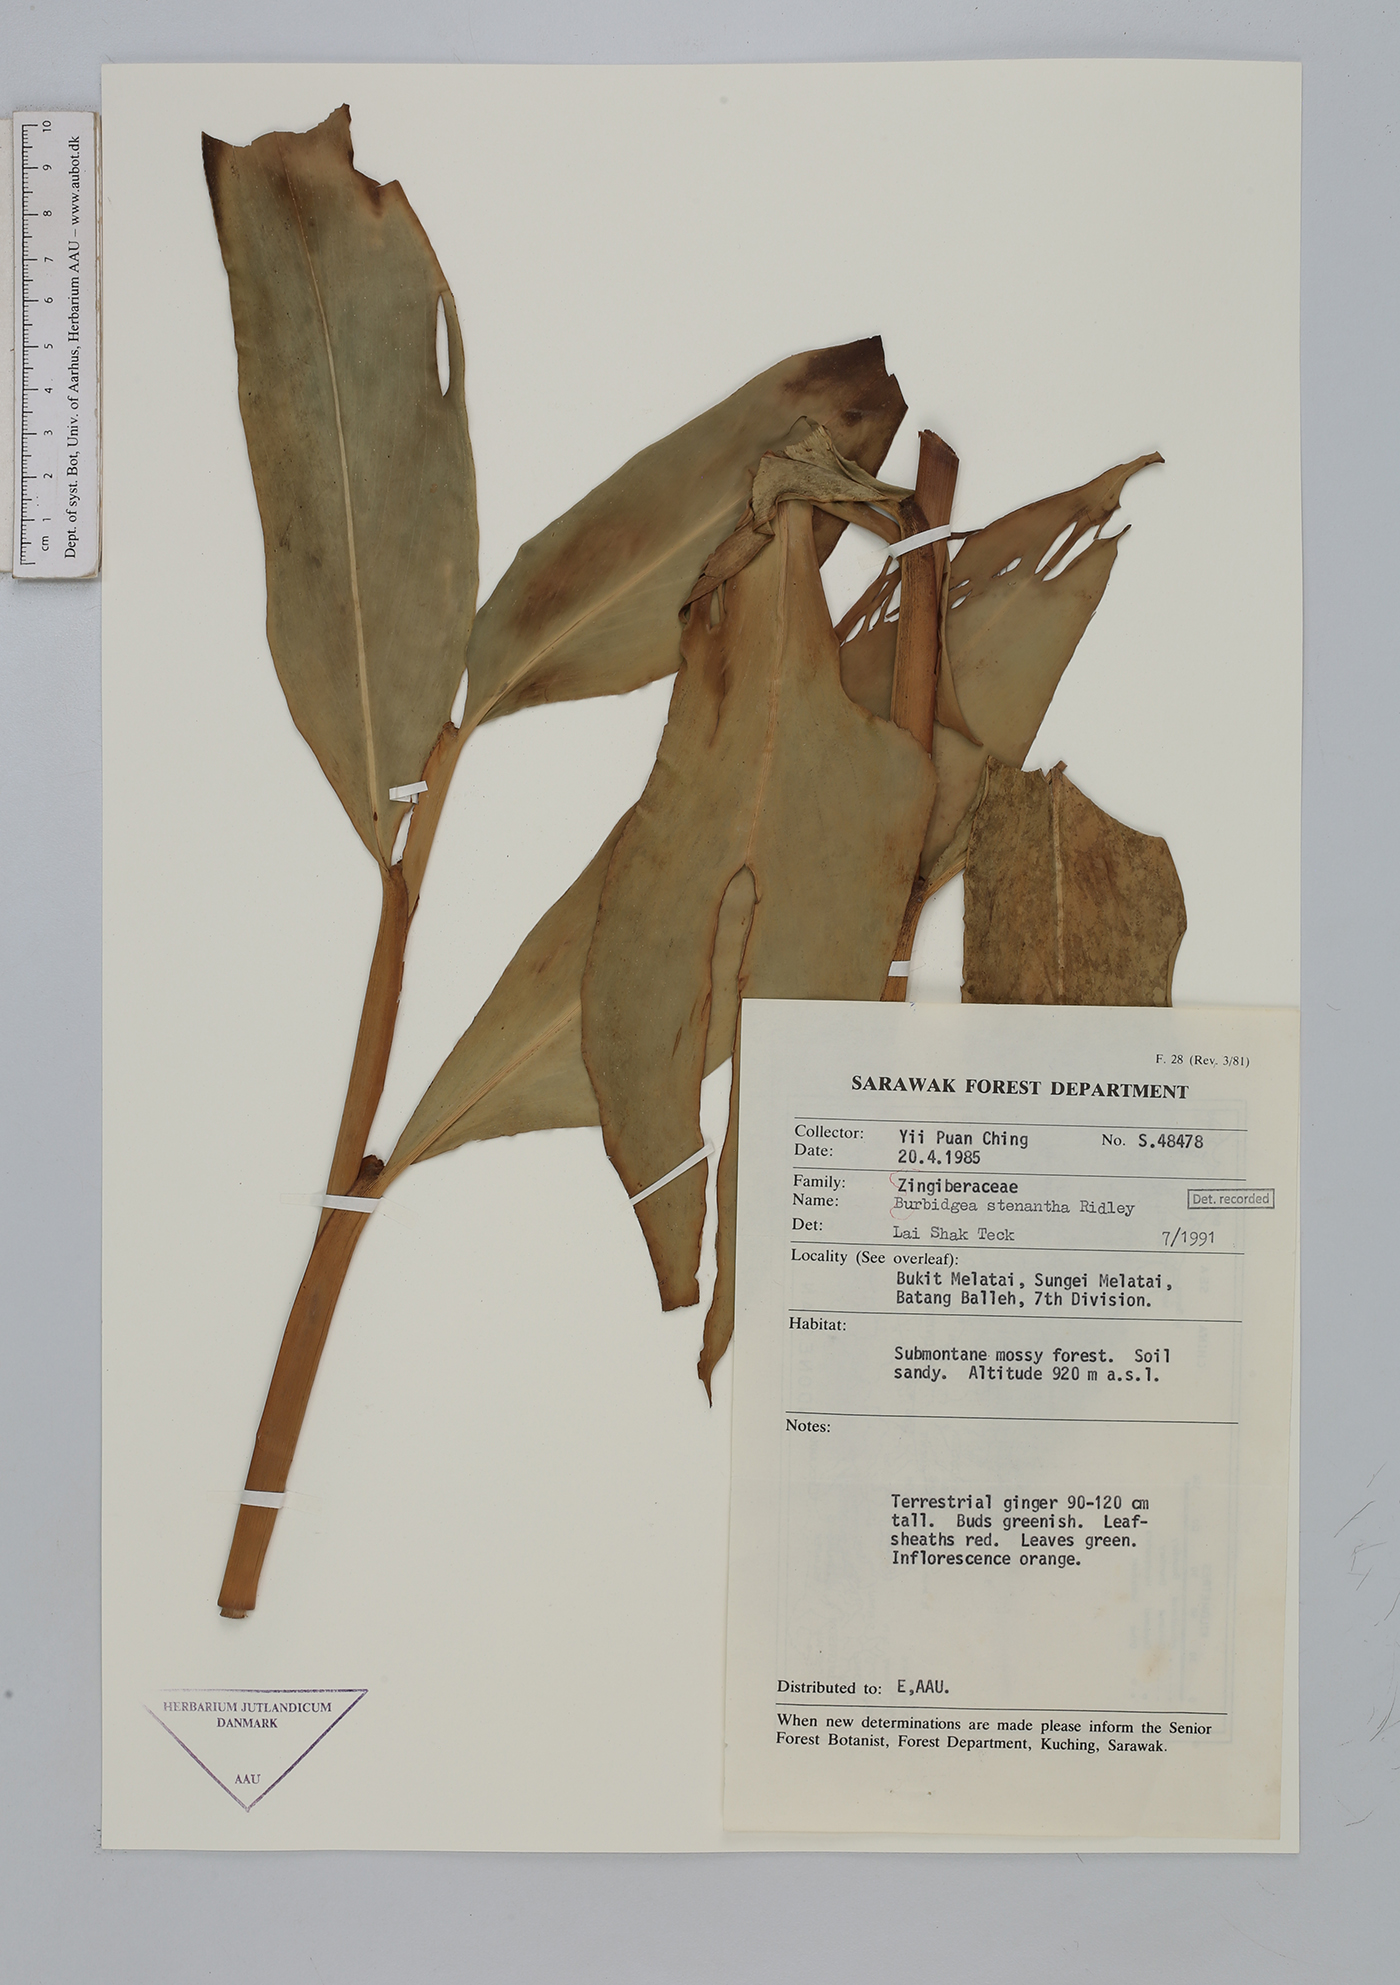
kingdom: Plantae
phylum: Tracheophyta
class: Liliopsida
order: Zingiberales
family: Zingiberaceae
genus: Burbidgea
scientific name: Burbidgea stenantha
